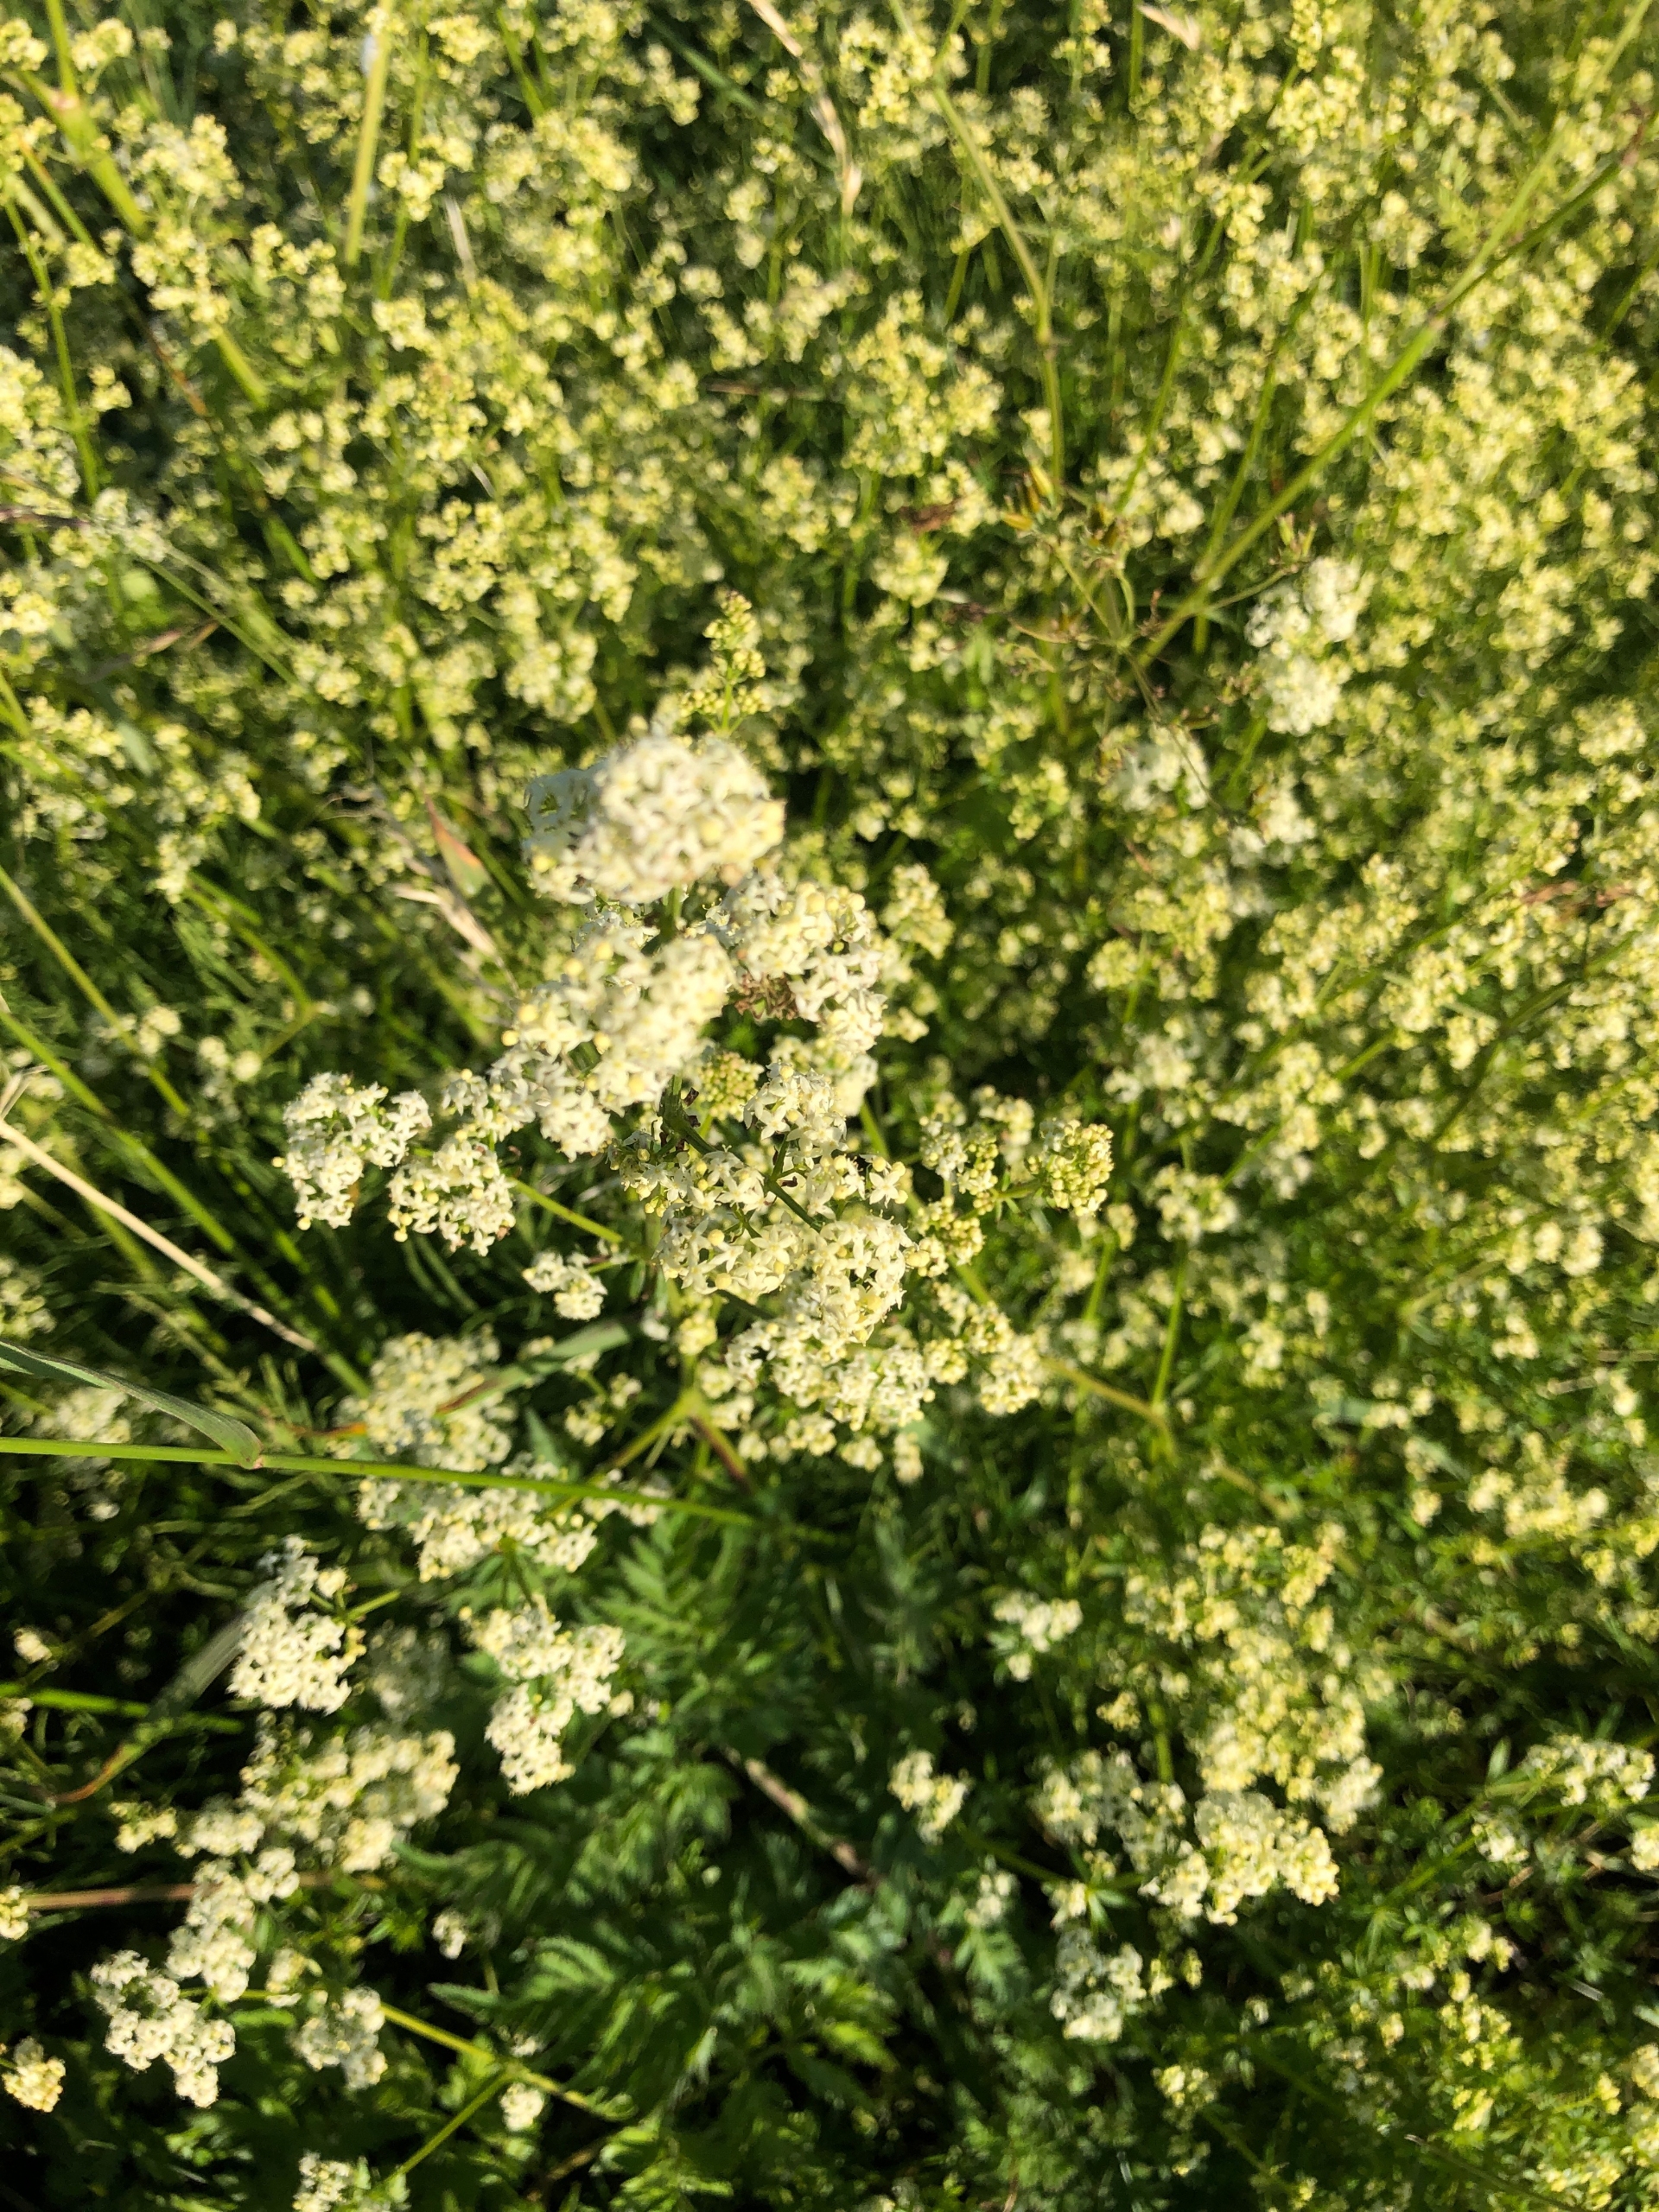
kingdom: Plantae
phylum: Tracheophyta
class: Magnoliopsida
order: Gentianales
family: Rubiaceae
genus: Galium
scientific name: Galium mollugo
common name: Hvid snerre
